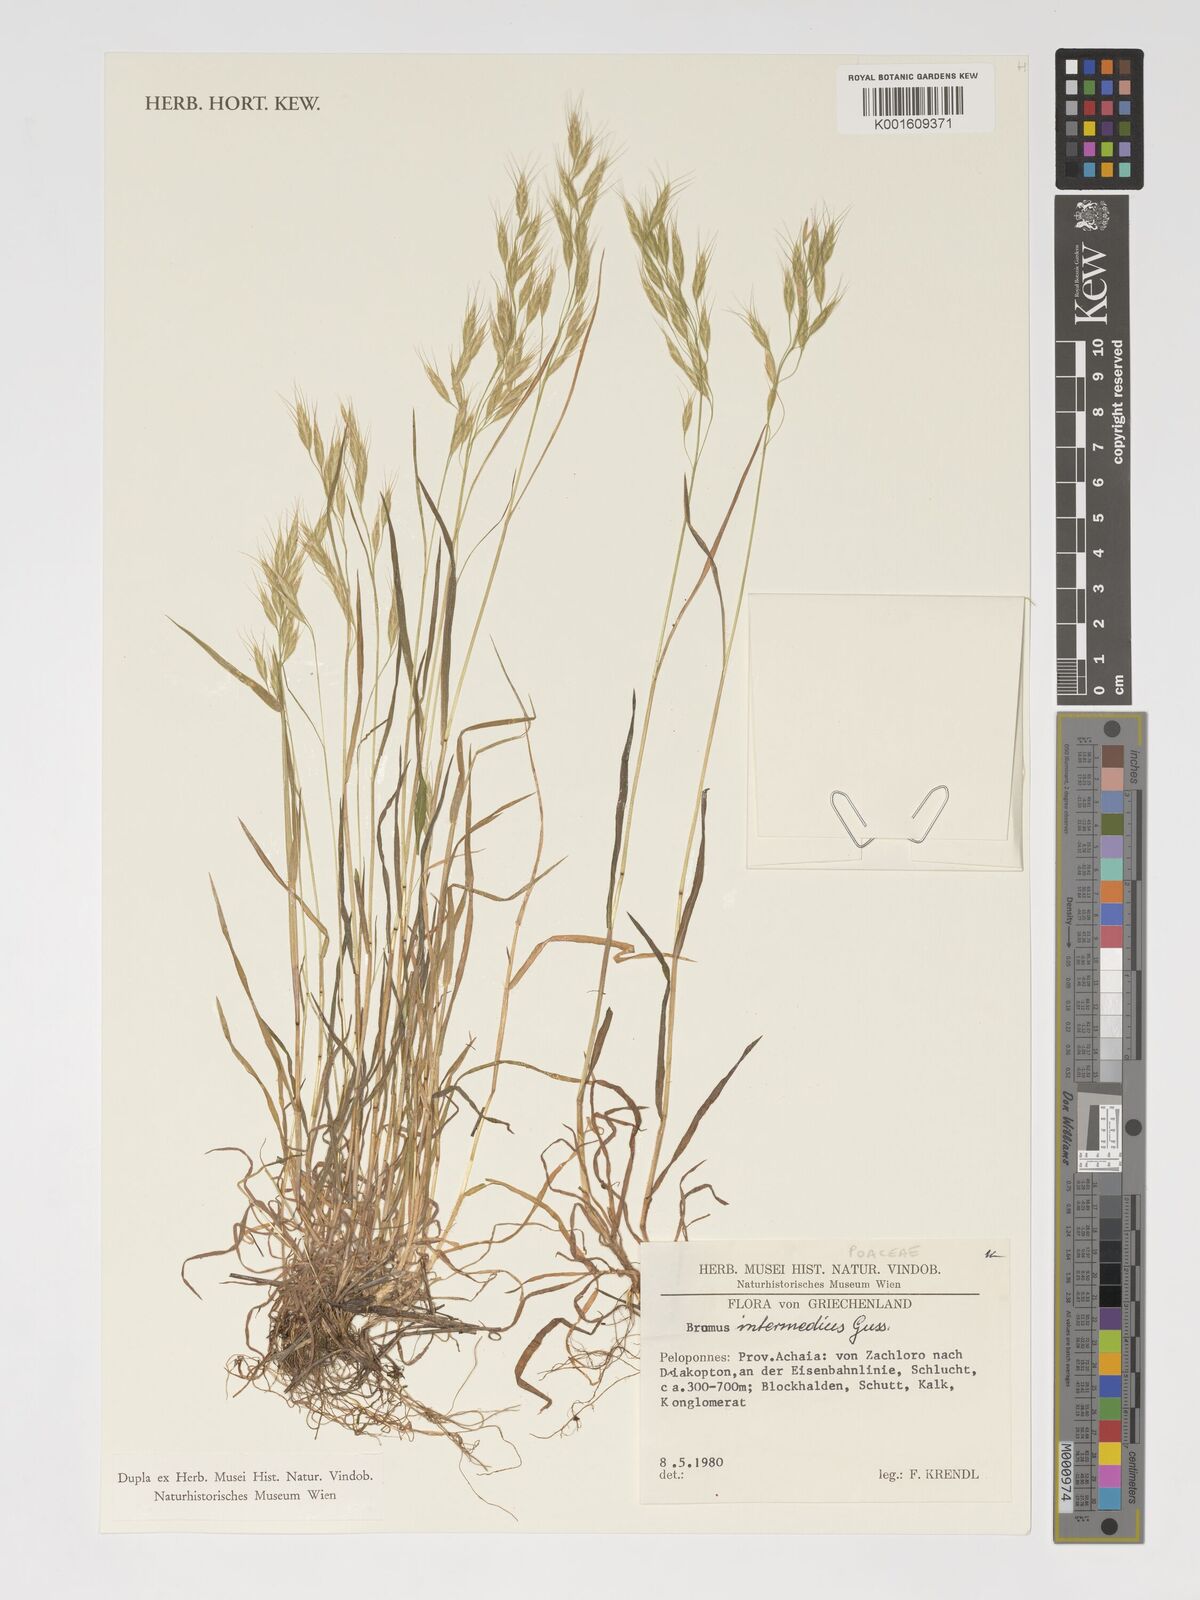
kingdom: Plantae
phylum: Tracheophyta
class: Liliopsida
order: Poales
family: Poaceae
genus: Bromus
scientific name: Bromus intermedius
